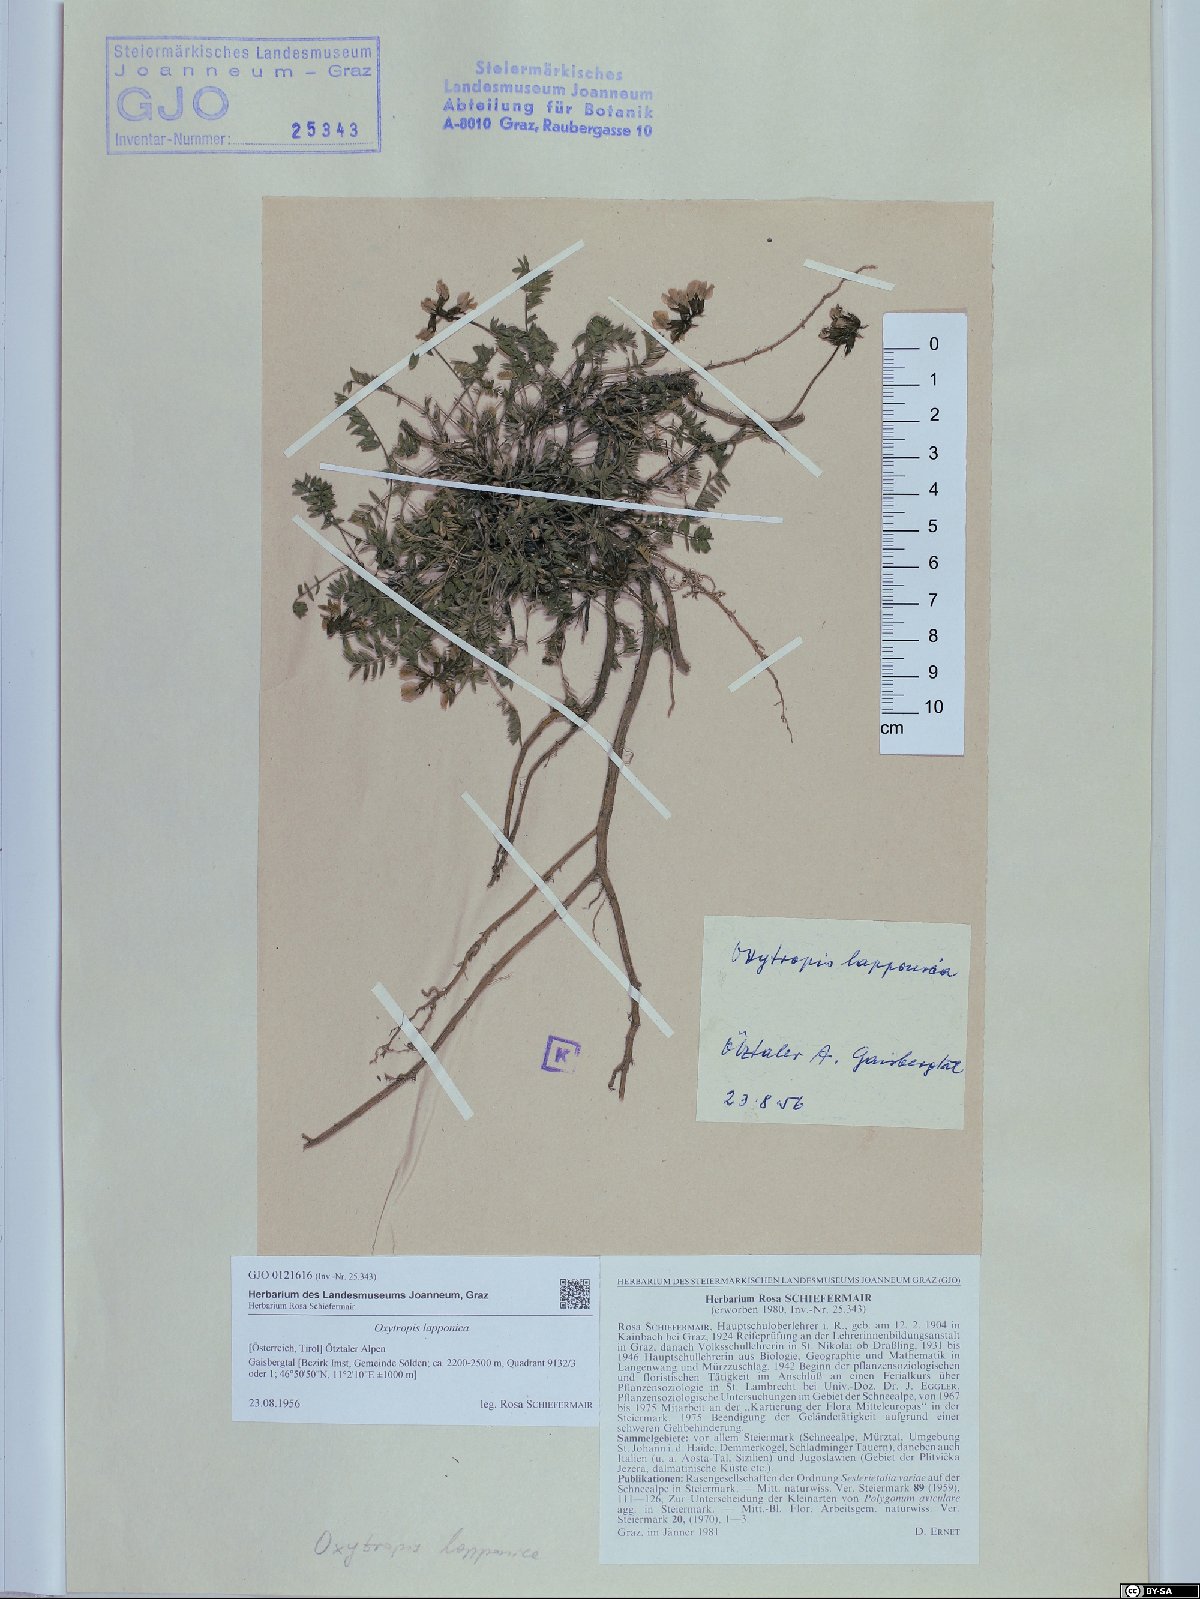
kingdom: Plantae
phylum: Tracheophyta
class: Magnoliopsida
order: Fabales
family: Fabaceae
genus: Oxytropis
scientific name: Oxytropis lapponica
